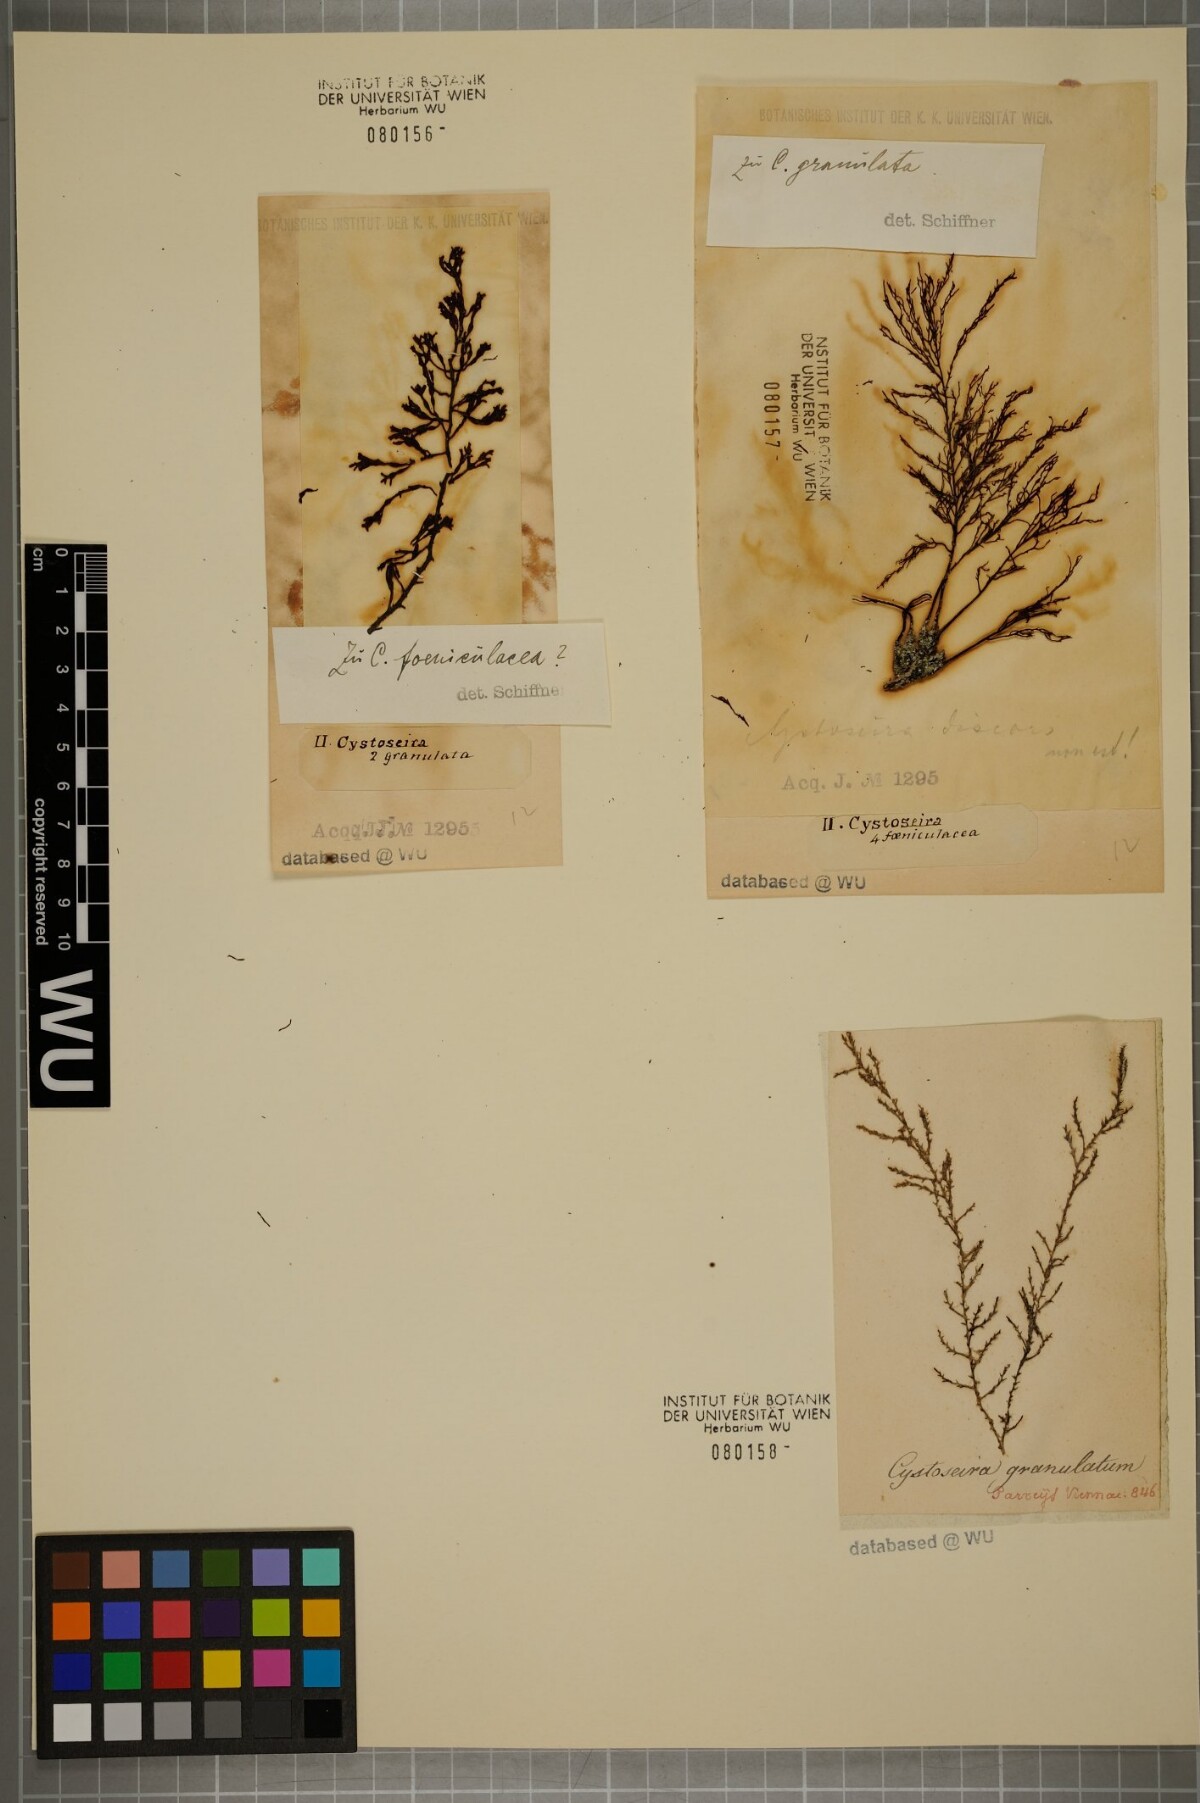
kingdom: Chromista
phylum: Ochrophyta
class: Phaeophyceae
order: Fucales
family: Sargassaceae
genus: Cystoseira
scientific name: Cystoseira Gongolaria usneoides
